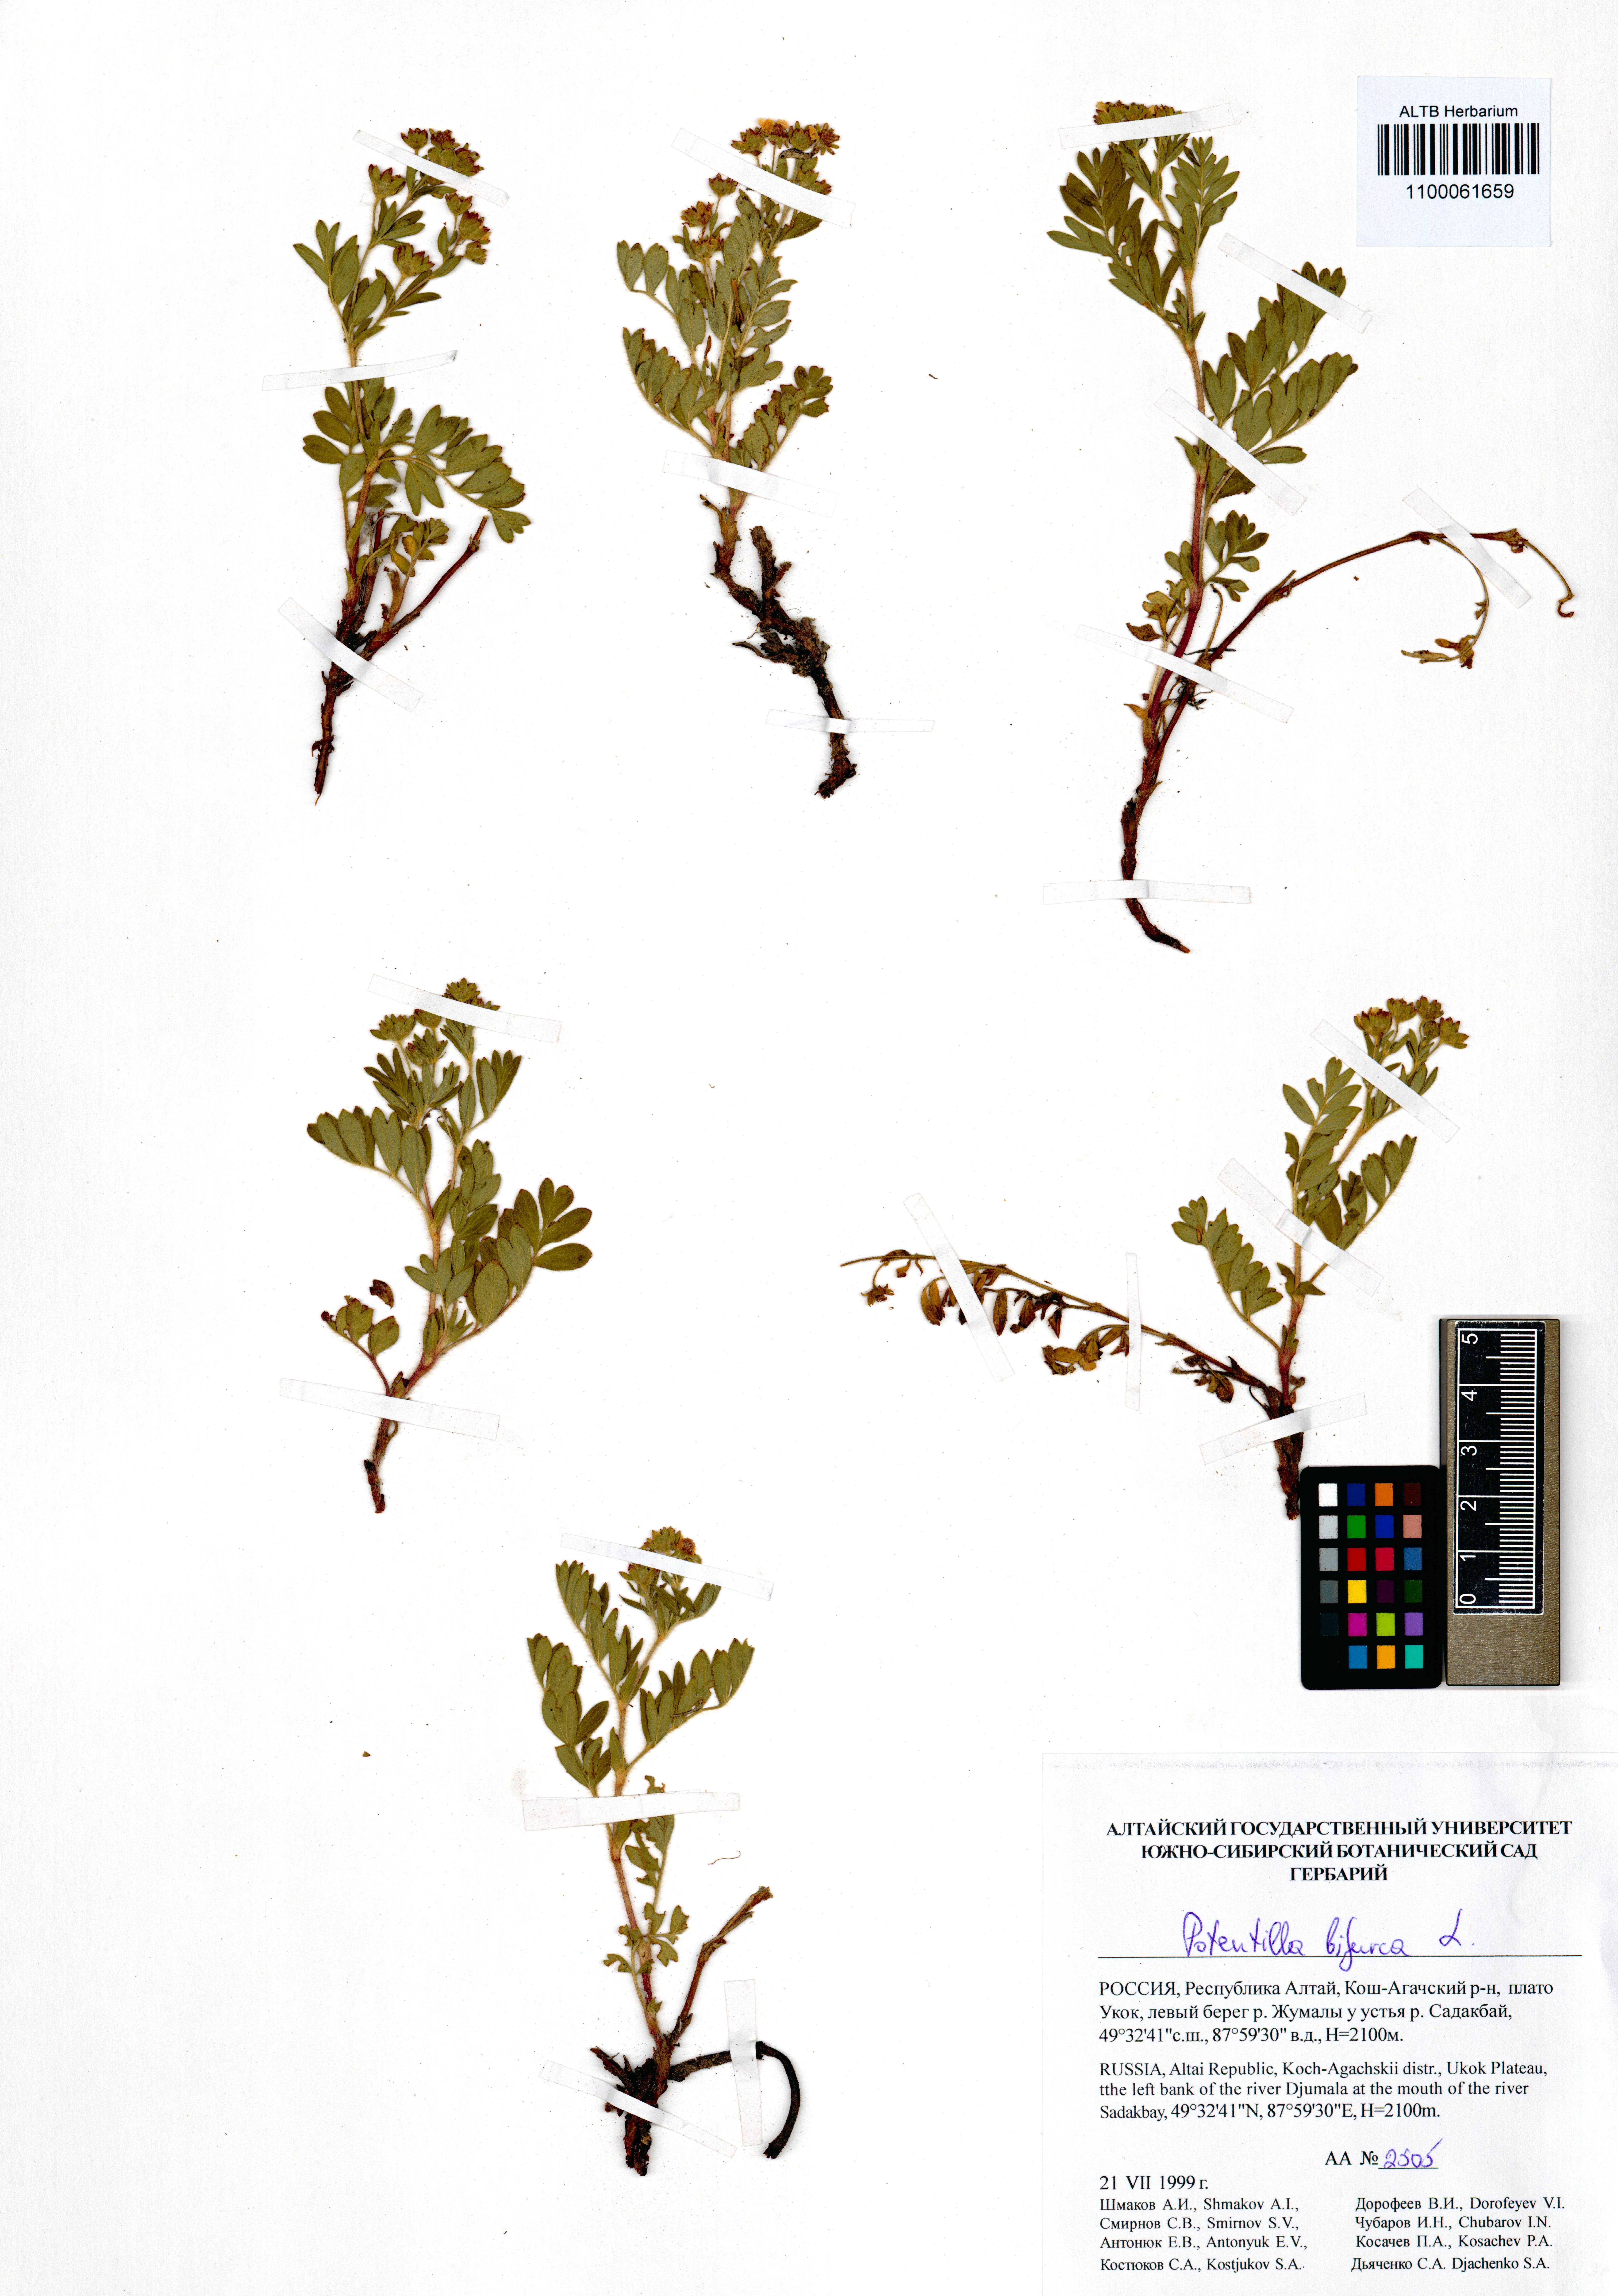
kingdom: Plantae
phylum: Tracheophyta
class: Magnoliopsida
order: Rosales
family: Rosaceae
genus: Sibbaldianthe
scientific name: Sibbaldianthe bifurca
